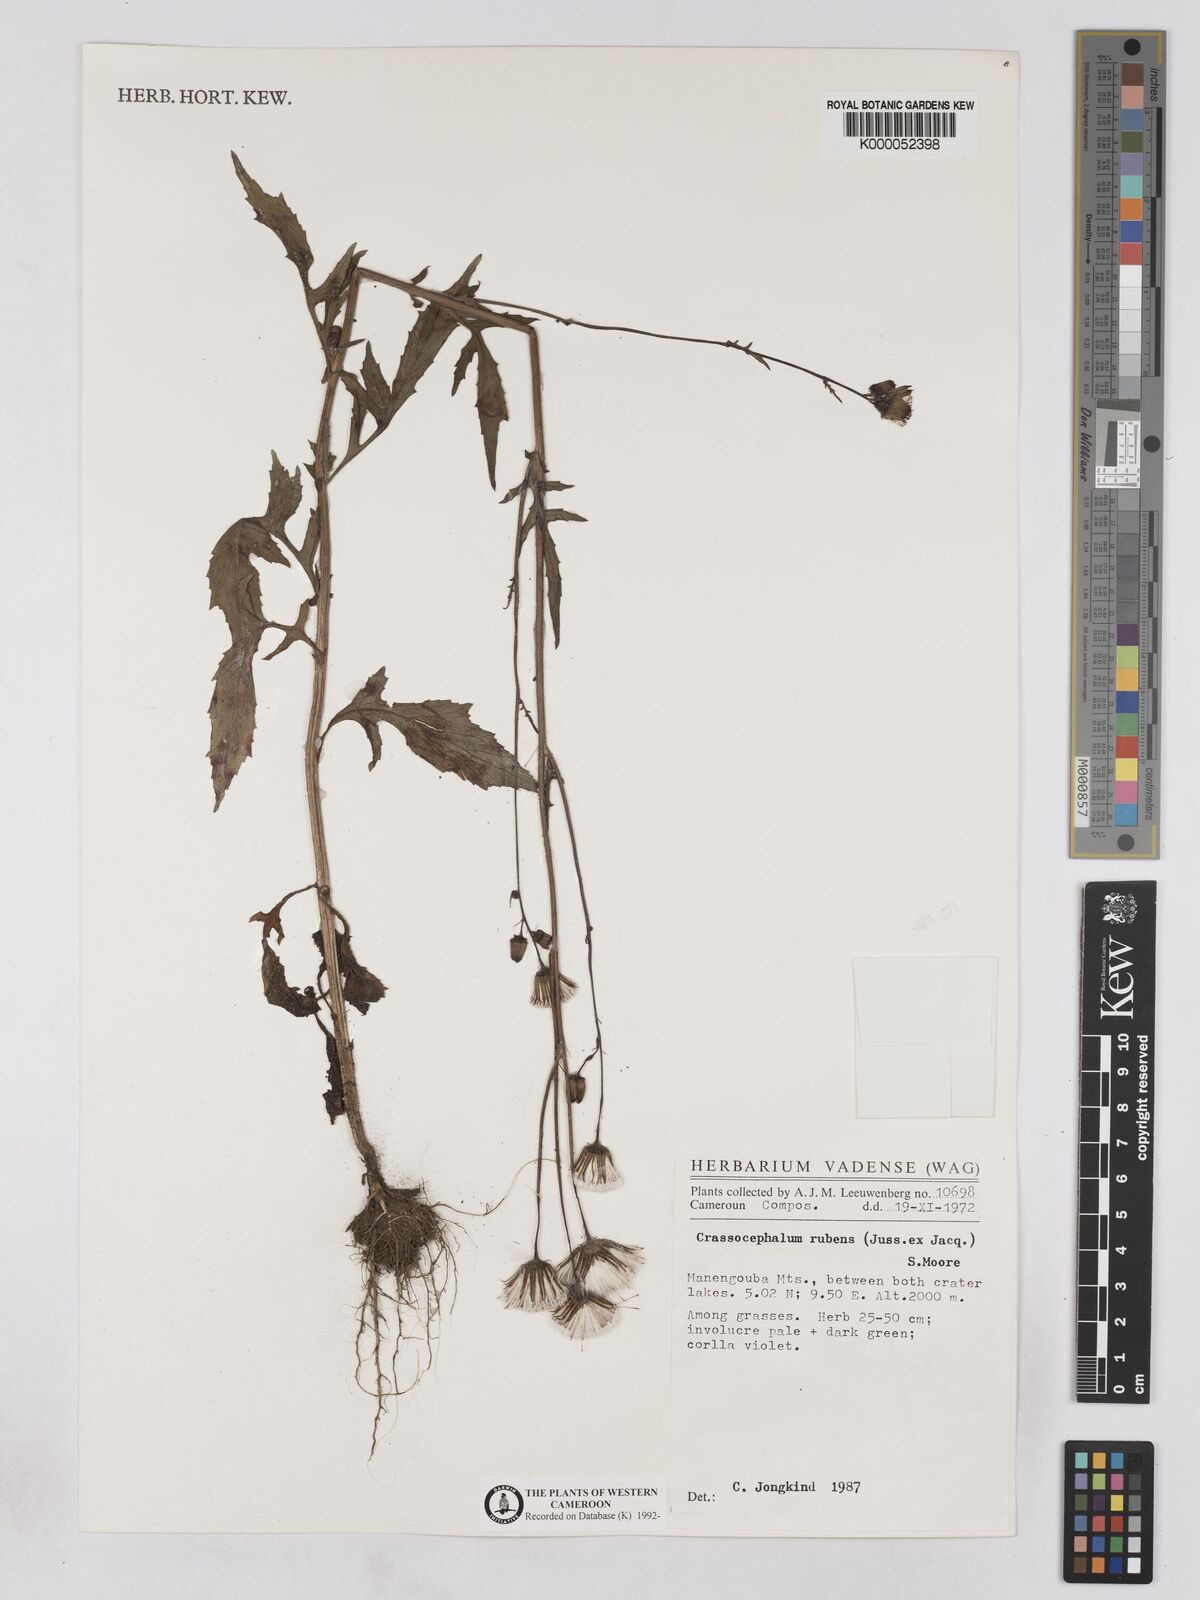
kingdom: Plantae
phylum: Tracheophyta
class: Magnoliopsida
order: Asterales
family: Asteraceae
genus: Crassocephalum
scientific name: Crassocephalum rubens
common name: Yoruban bologi
